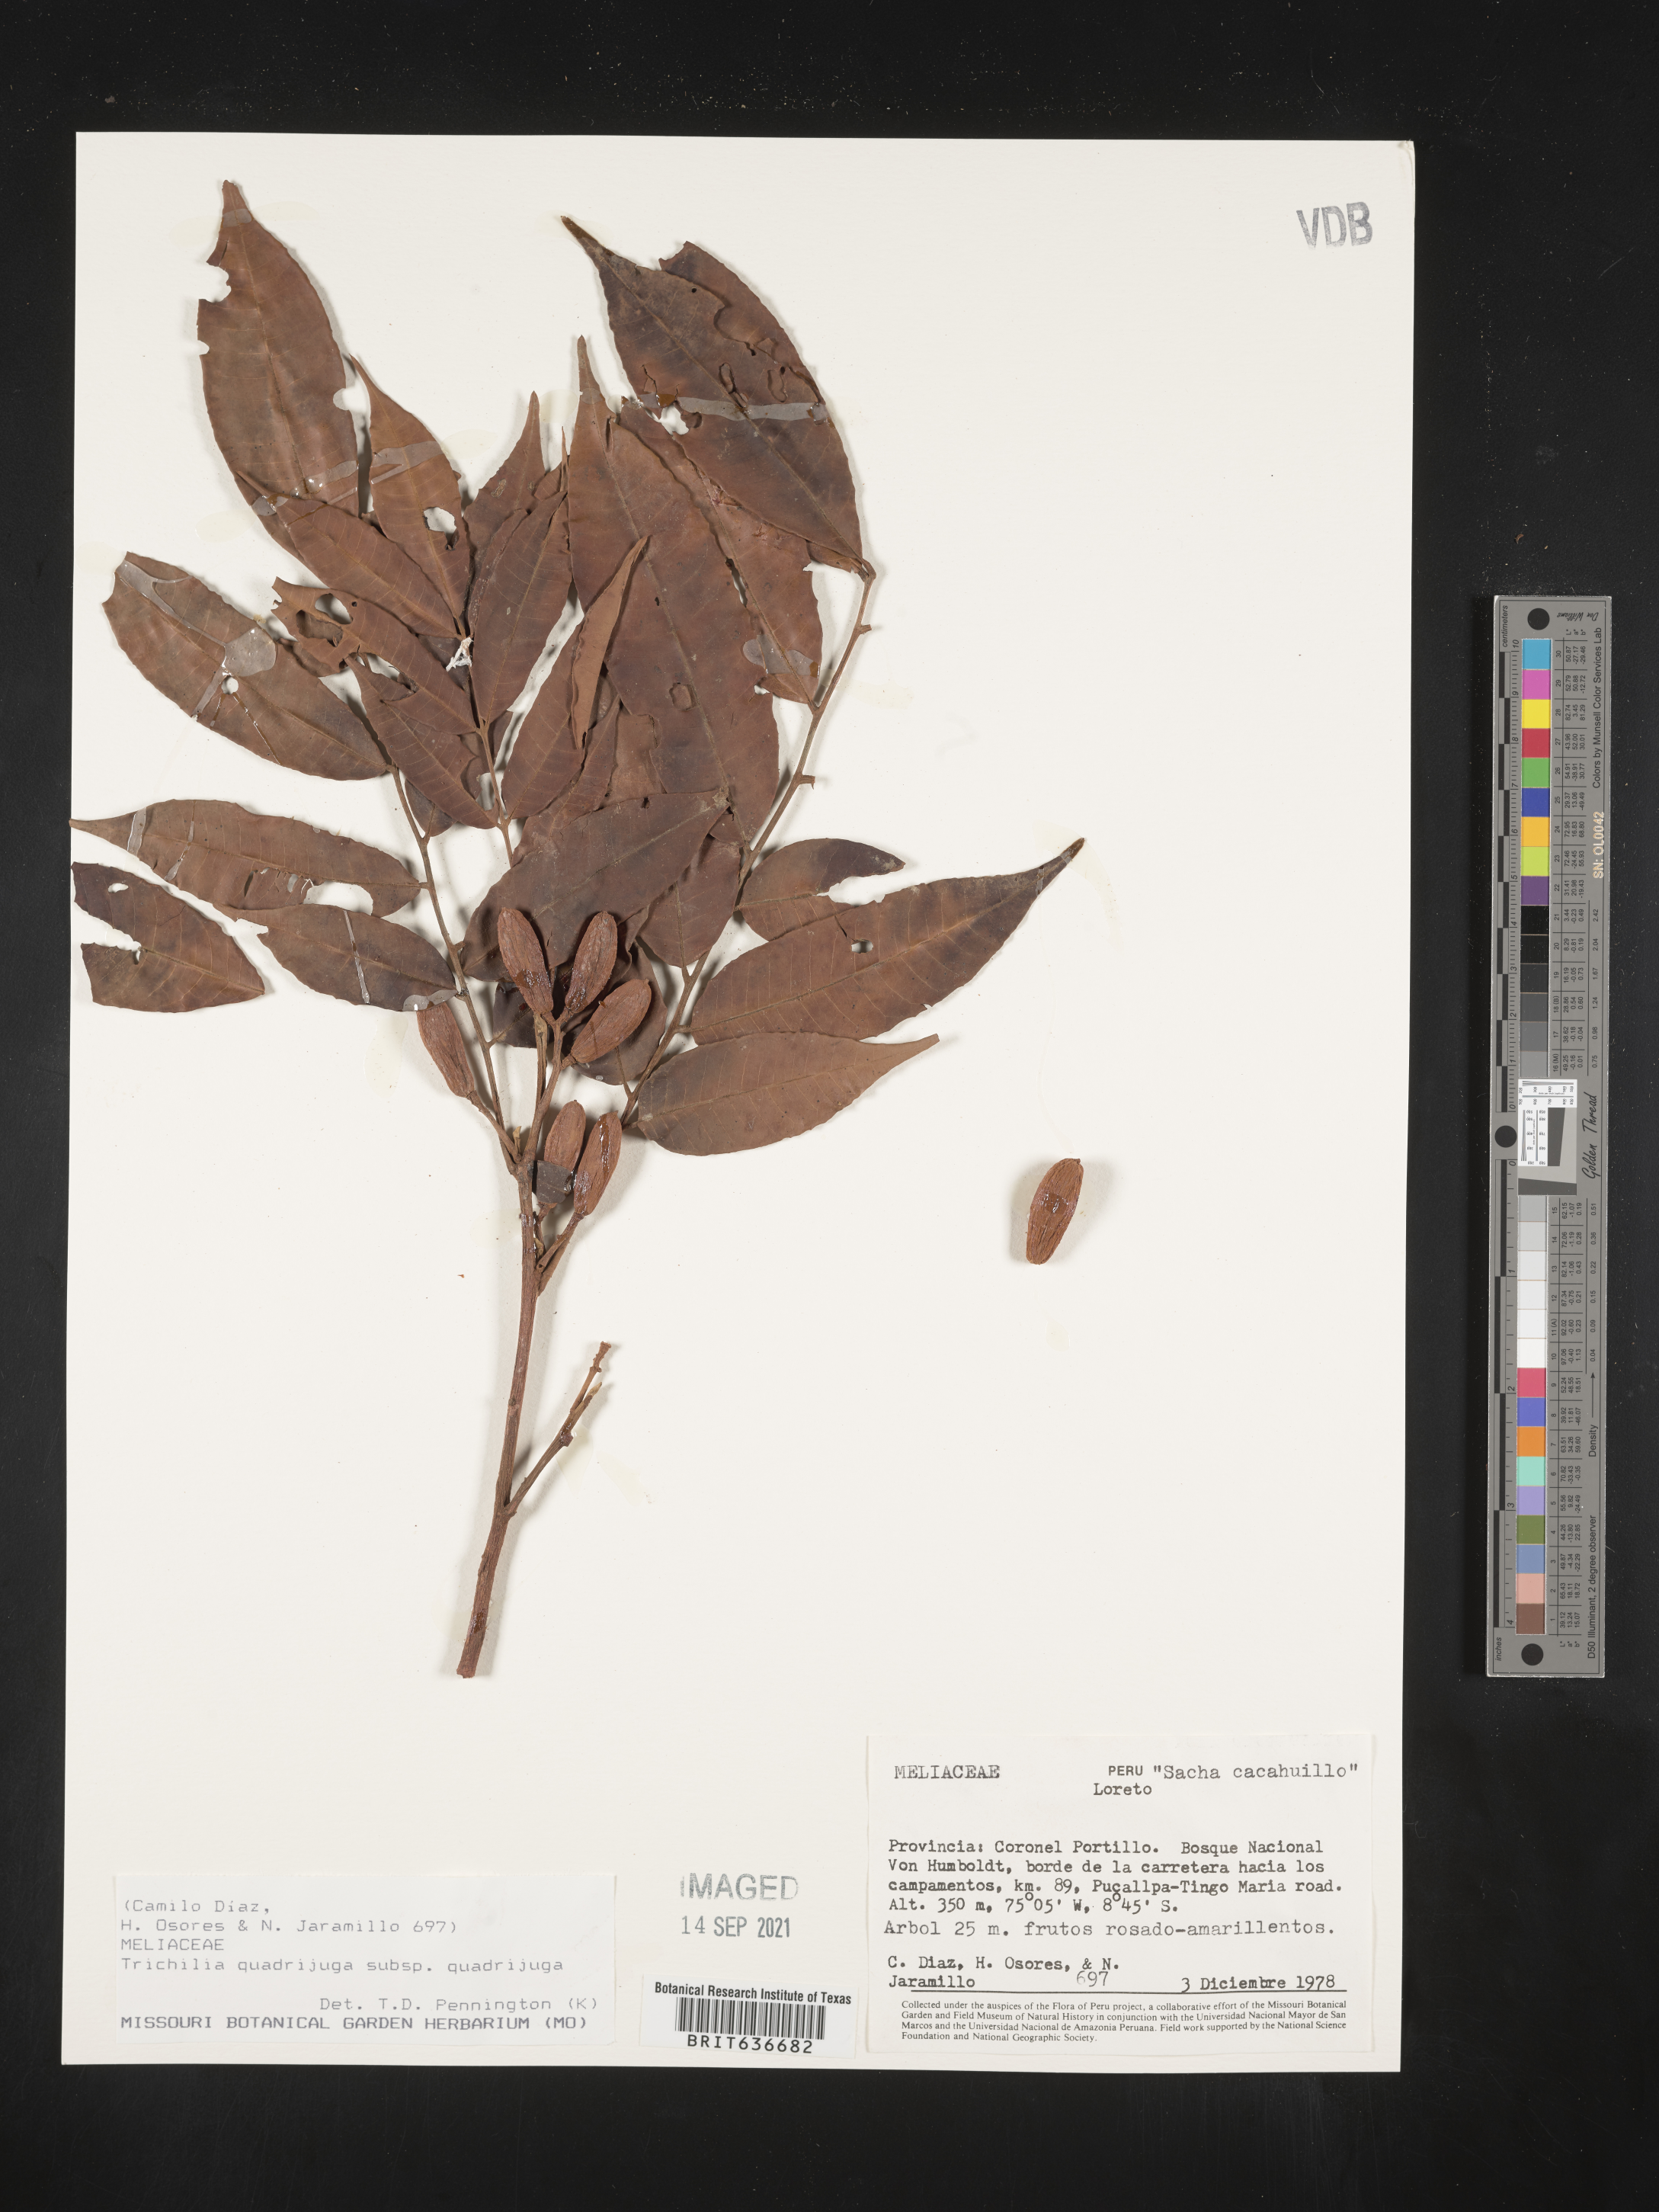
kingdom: Plantae
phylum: Tracheophyta
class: Magnoliopsida
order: Sapindales
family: Meliaceae
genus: Trichilia
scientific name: Trichilia
